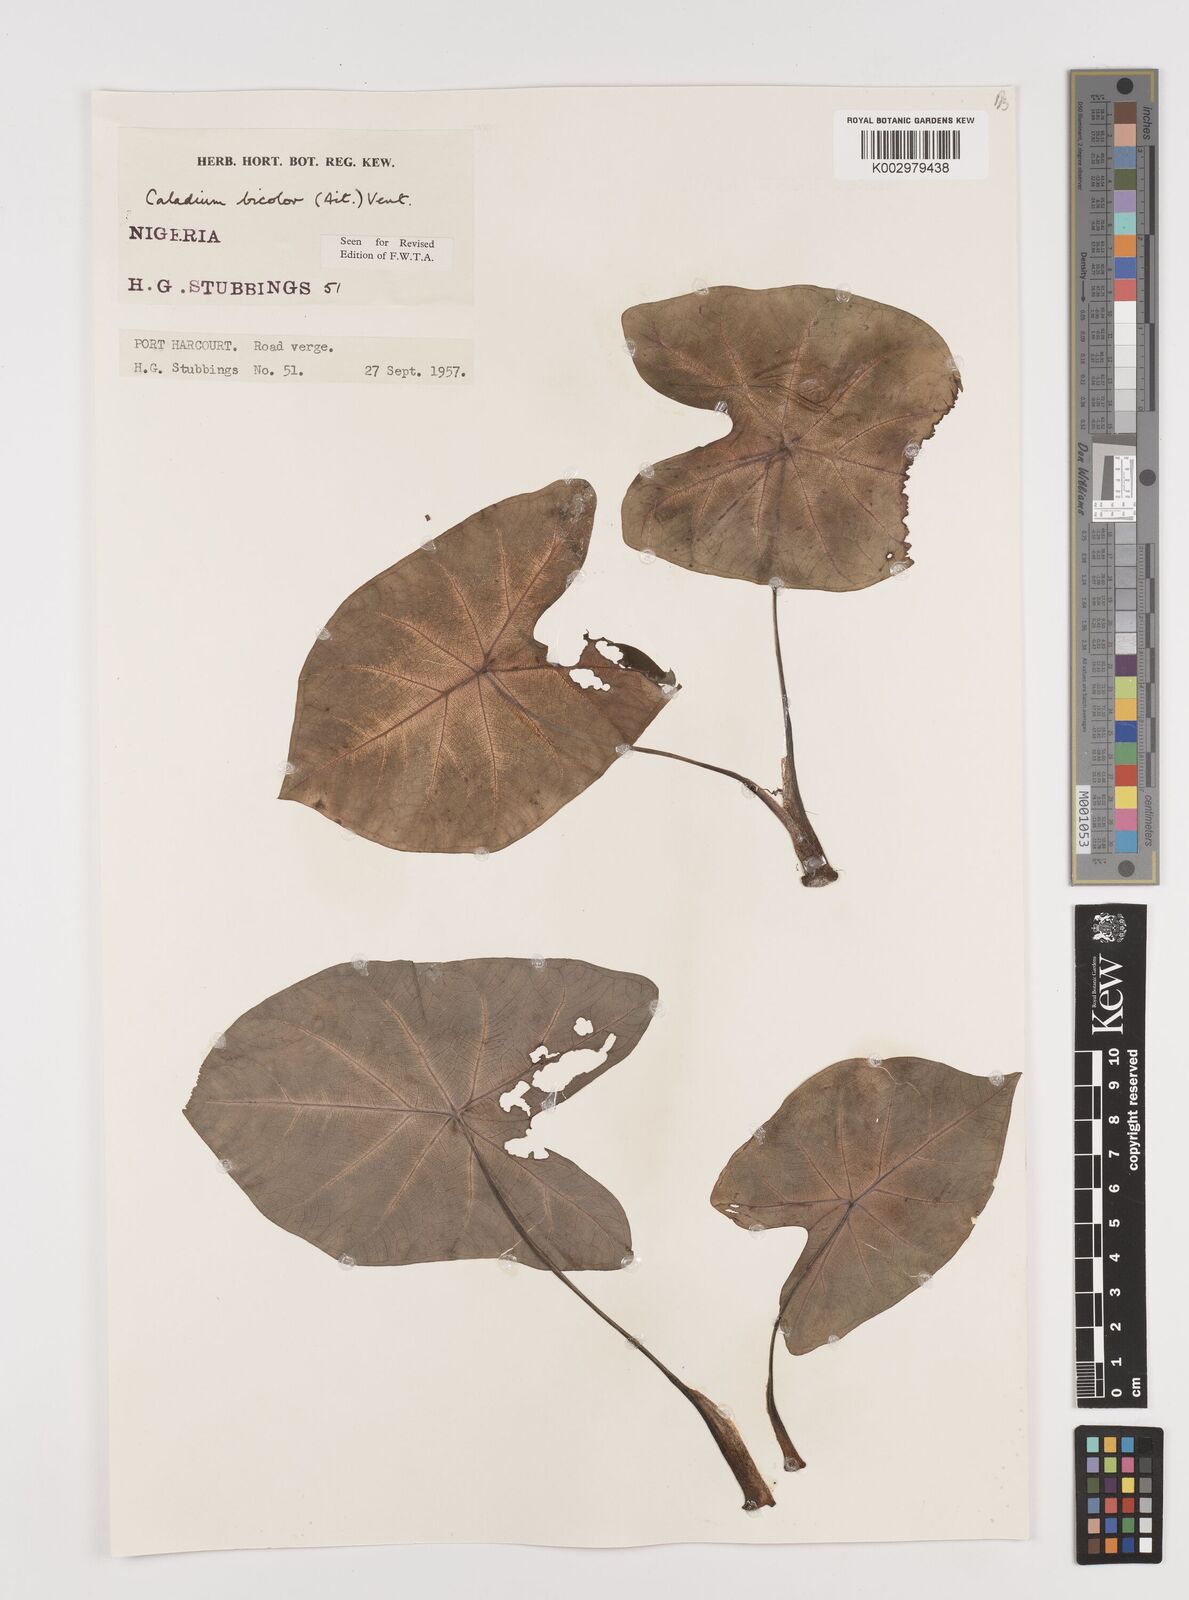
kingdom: Plantae
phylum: Tracheophyta
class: Liliopsida
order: Alismatales
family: Araceae
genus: Caladium
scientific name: Caladium bicolor
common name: Artist's pallet
